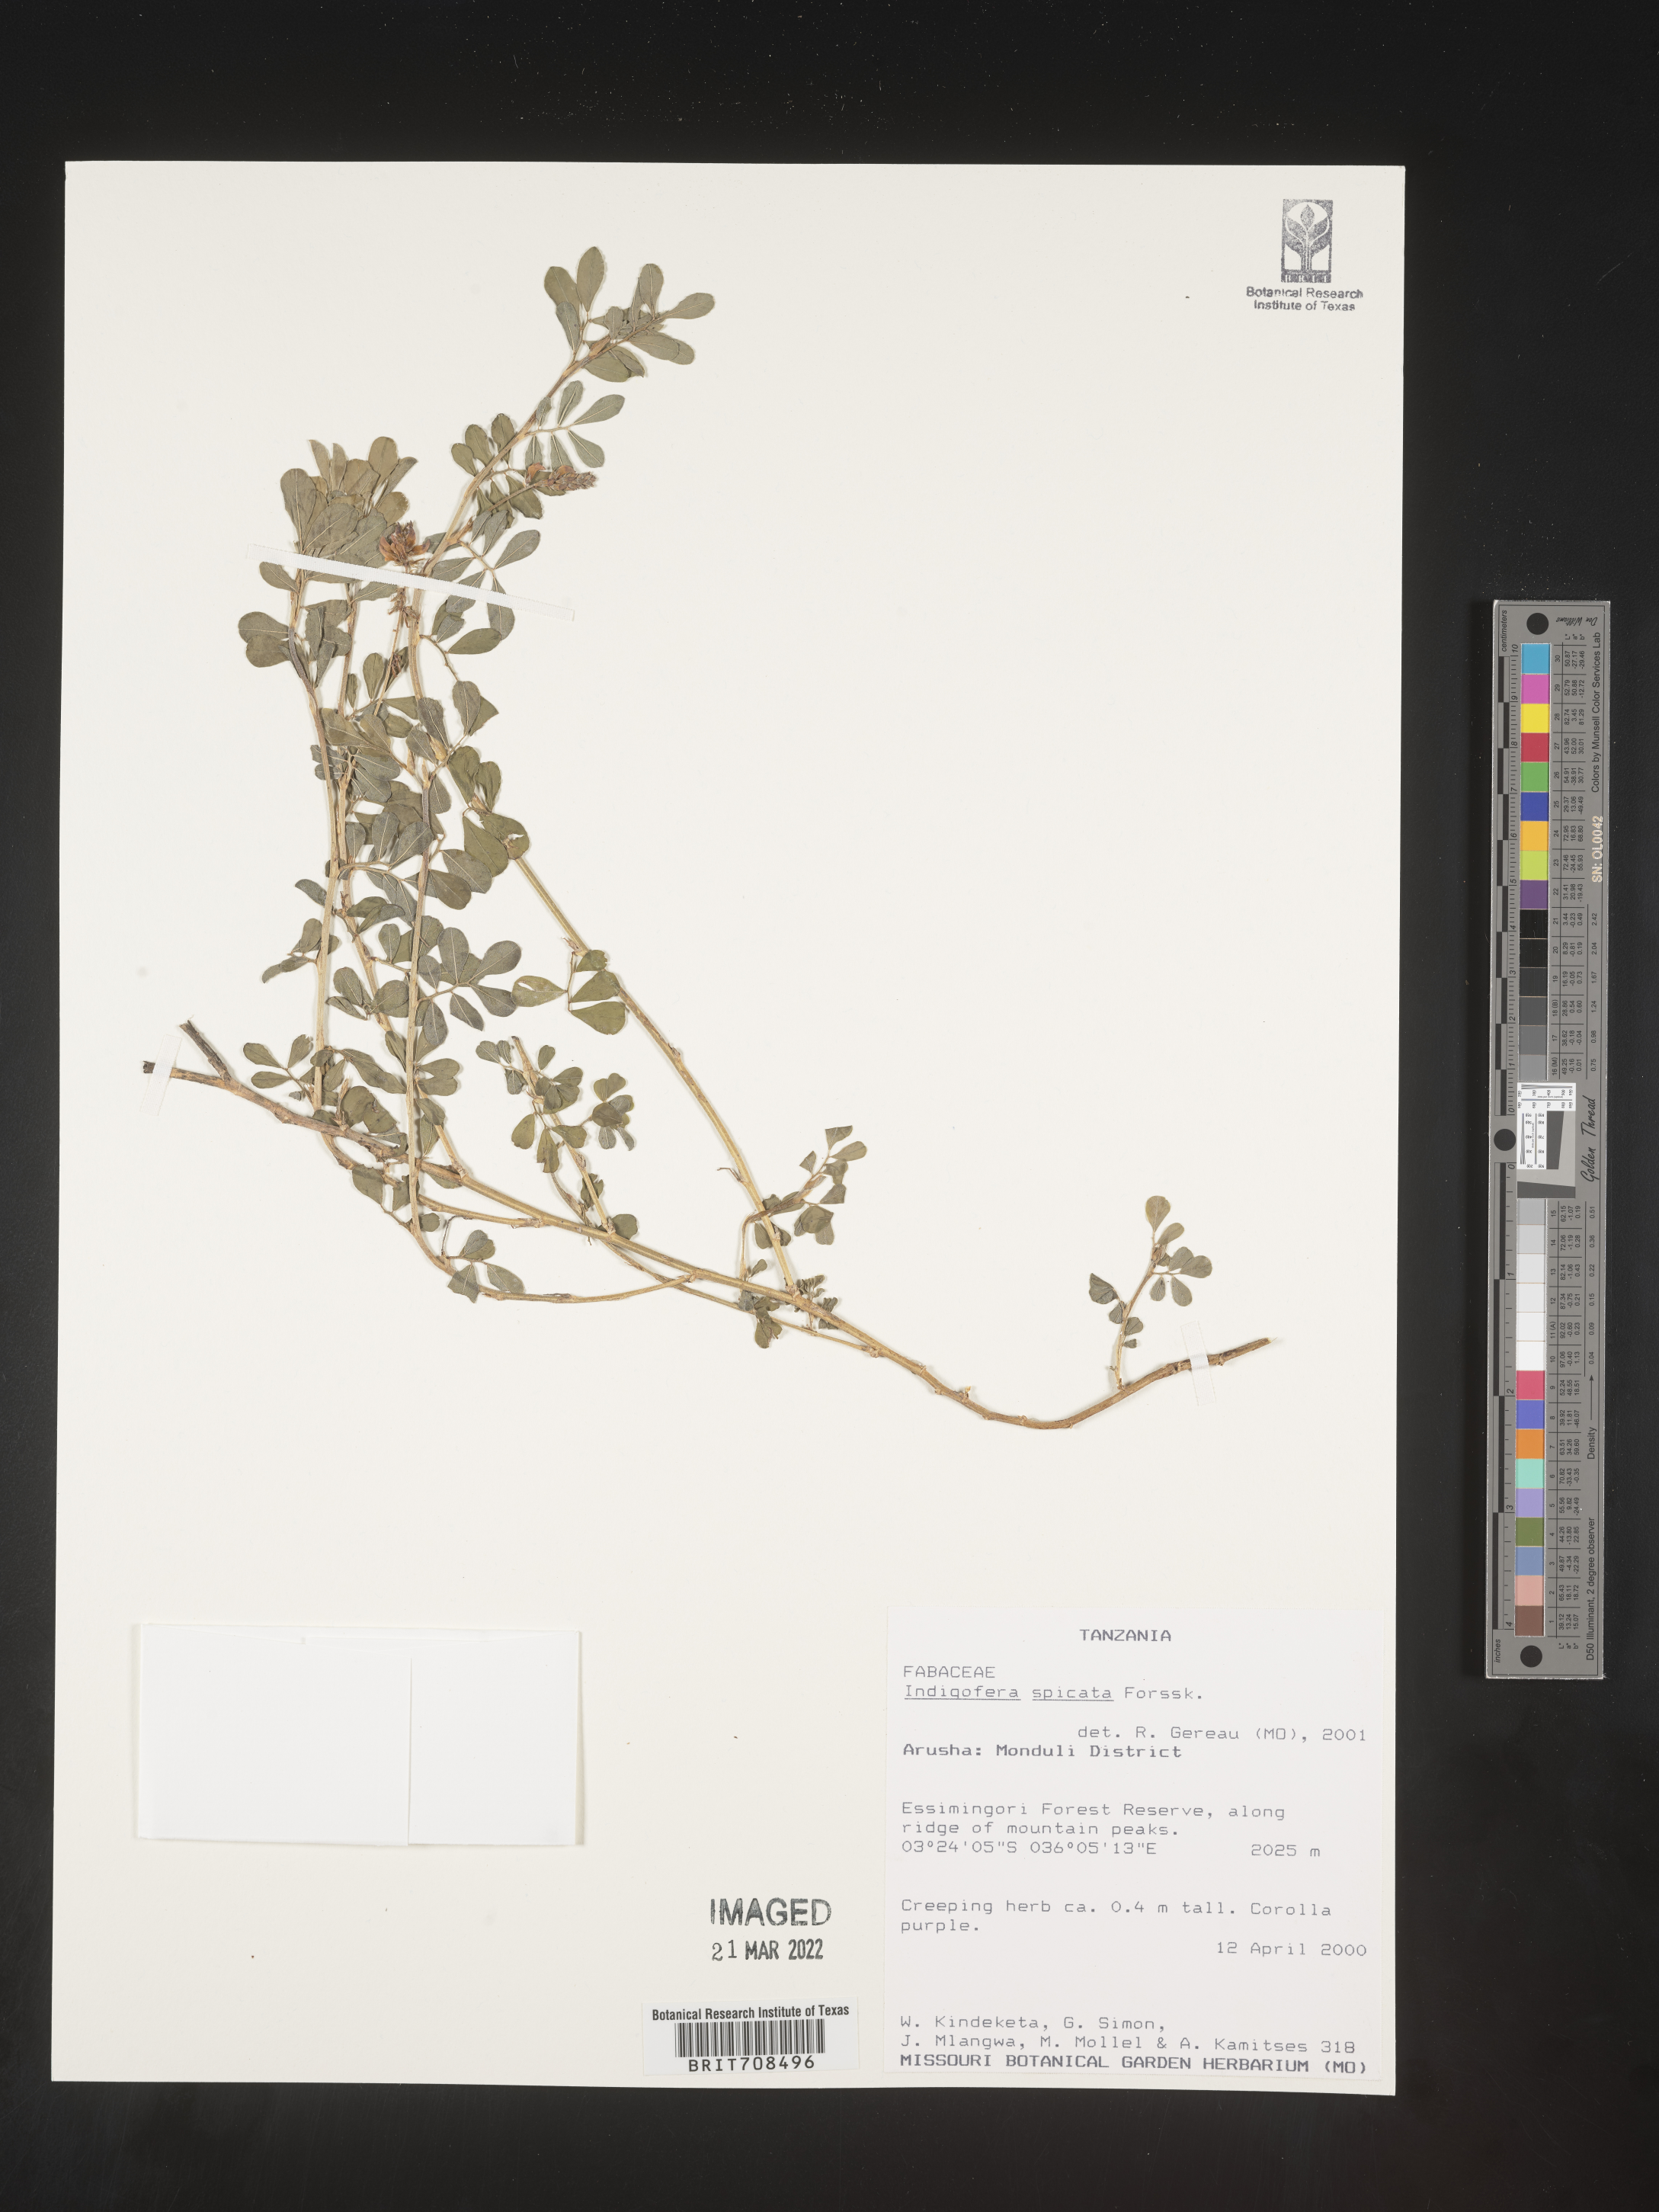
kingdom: Plantae
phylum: Tracheophyta
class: Magnoliopsida
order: Fabales
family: Fabaceae
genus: Indigofera
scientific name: Indigofera
